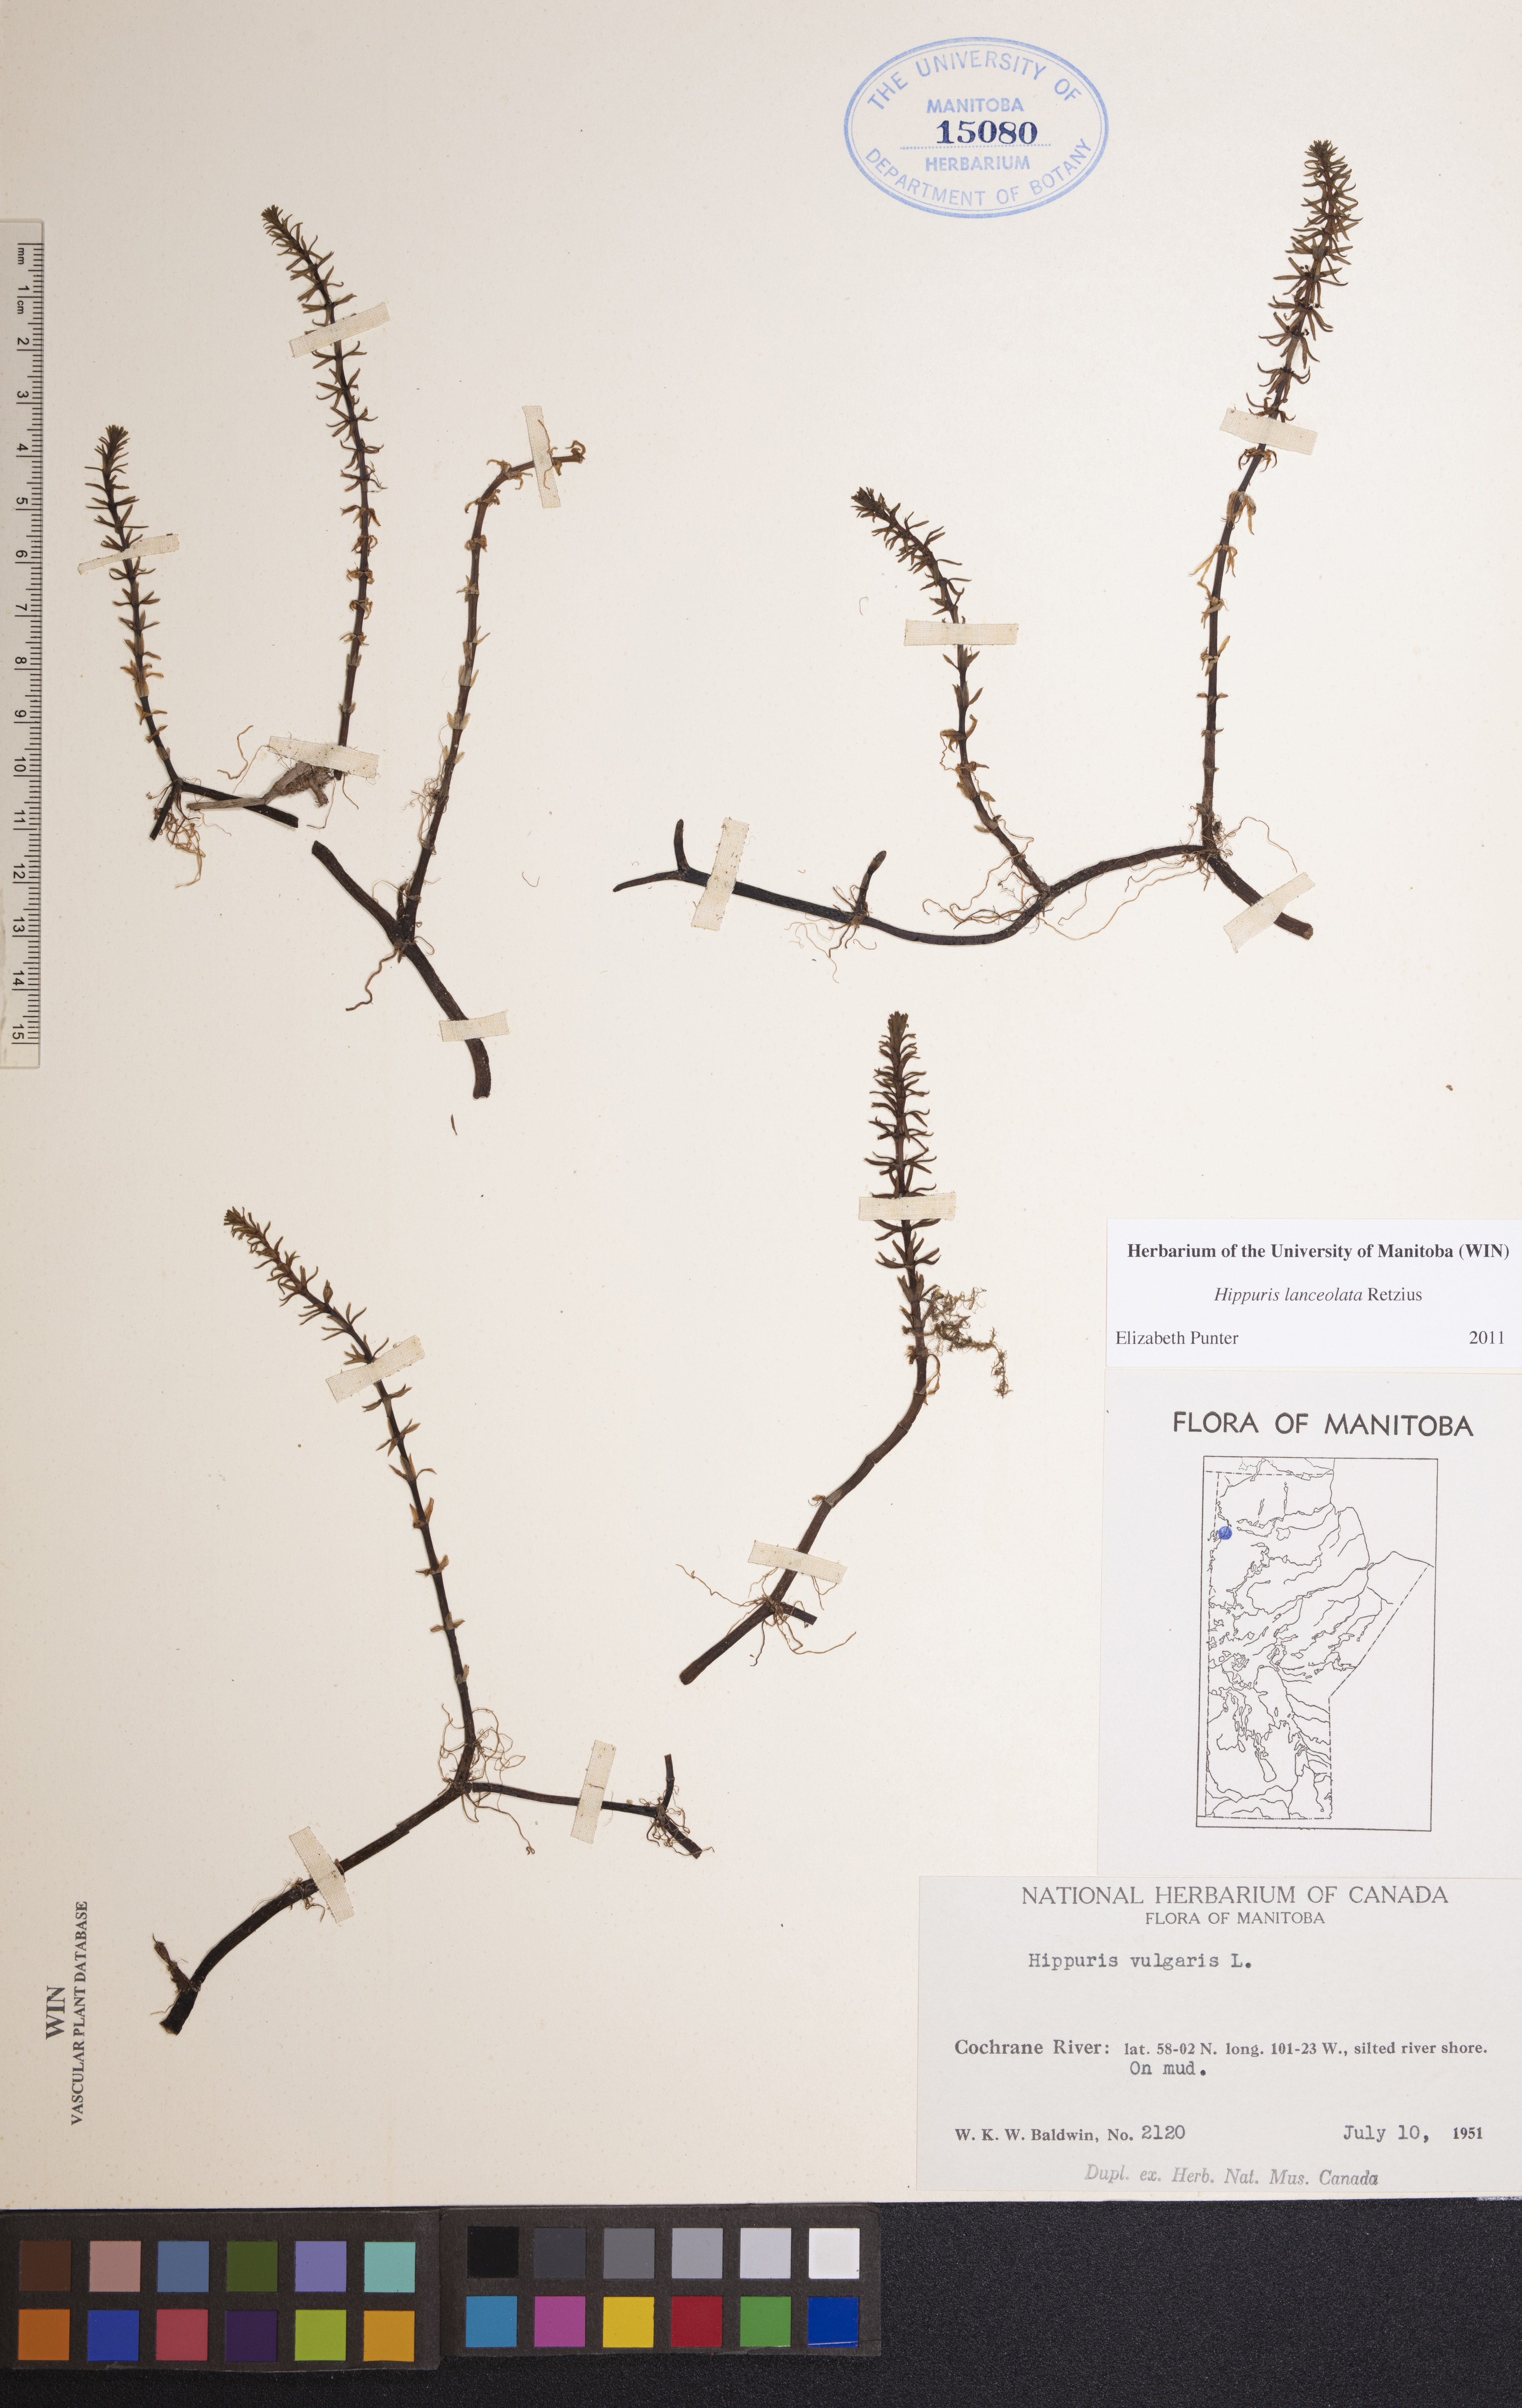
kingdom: Plantae
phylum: Tracheophyta
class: Magnoliopsida
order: Lamiales
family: Plantaginaceae
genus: Hippuris
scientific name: Hippuris lanceolata
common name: Lance-leaved mare's-tail
